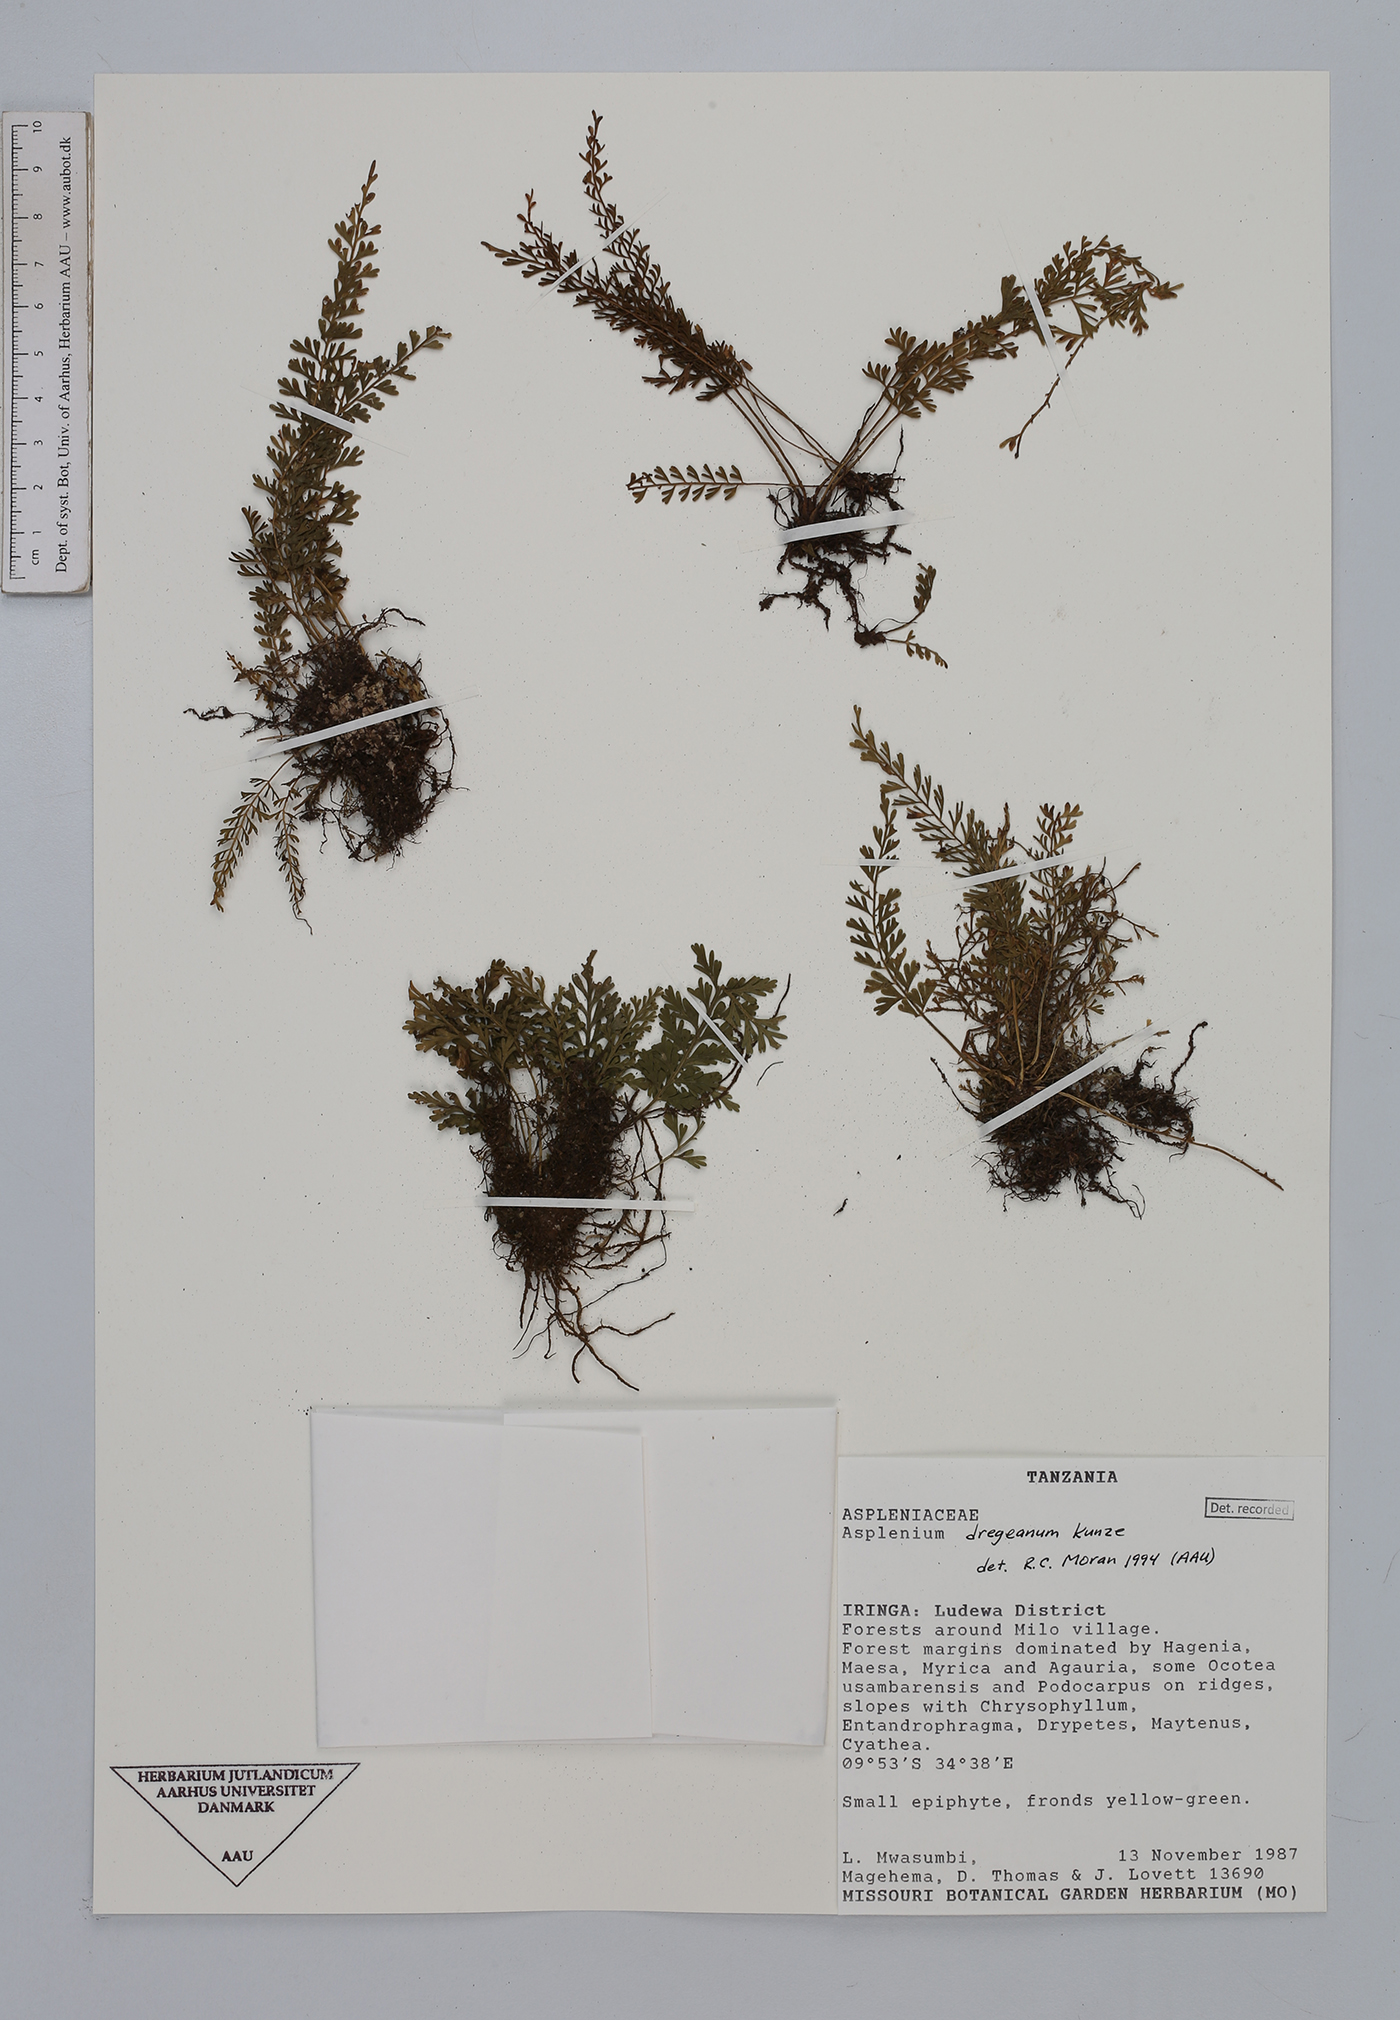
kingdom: Plantae
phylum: Tracheophyta
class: Polypodiopsida
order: Polypodiales
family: Aspleniaceae
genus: Asplenium
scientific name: Asplenium dregeanum
